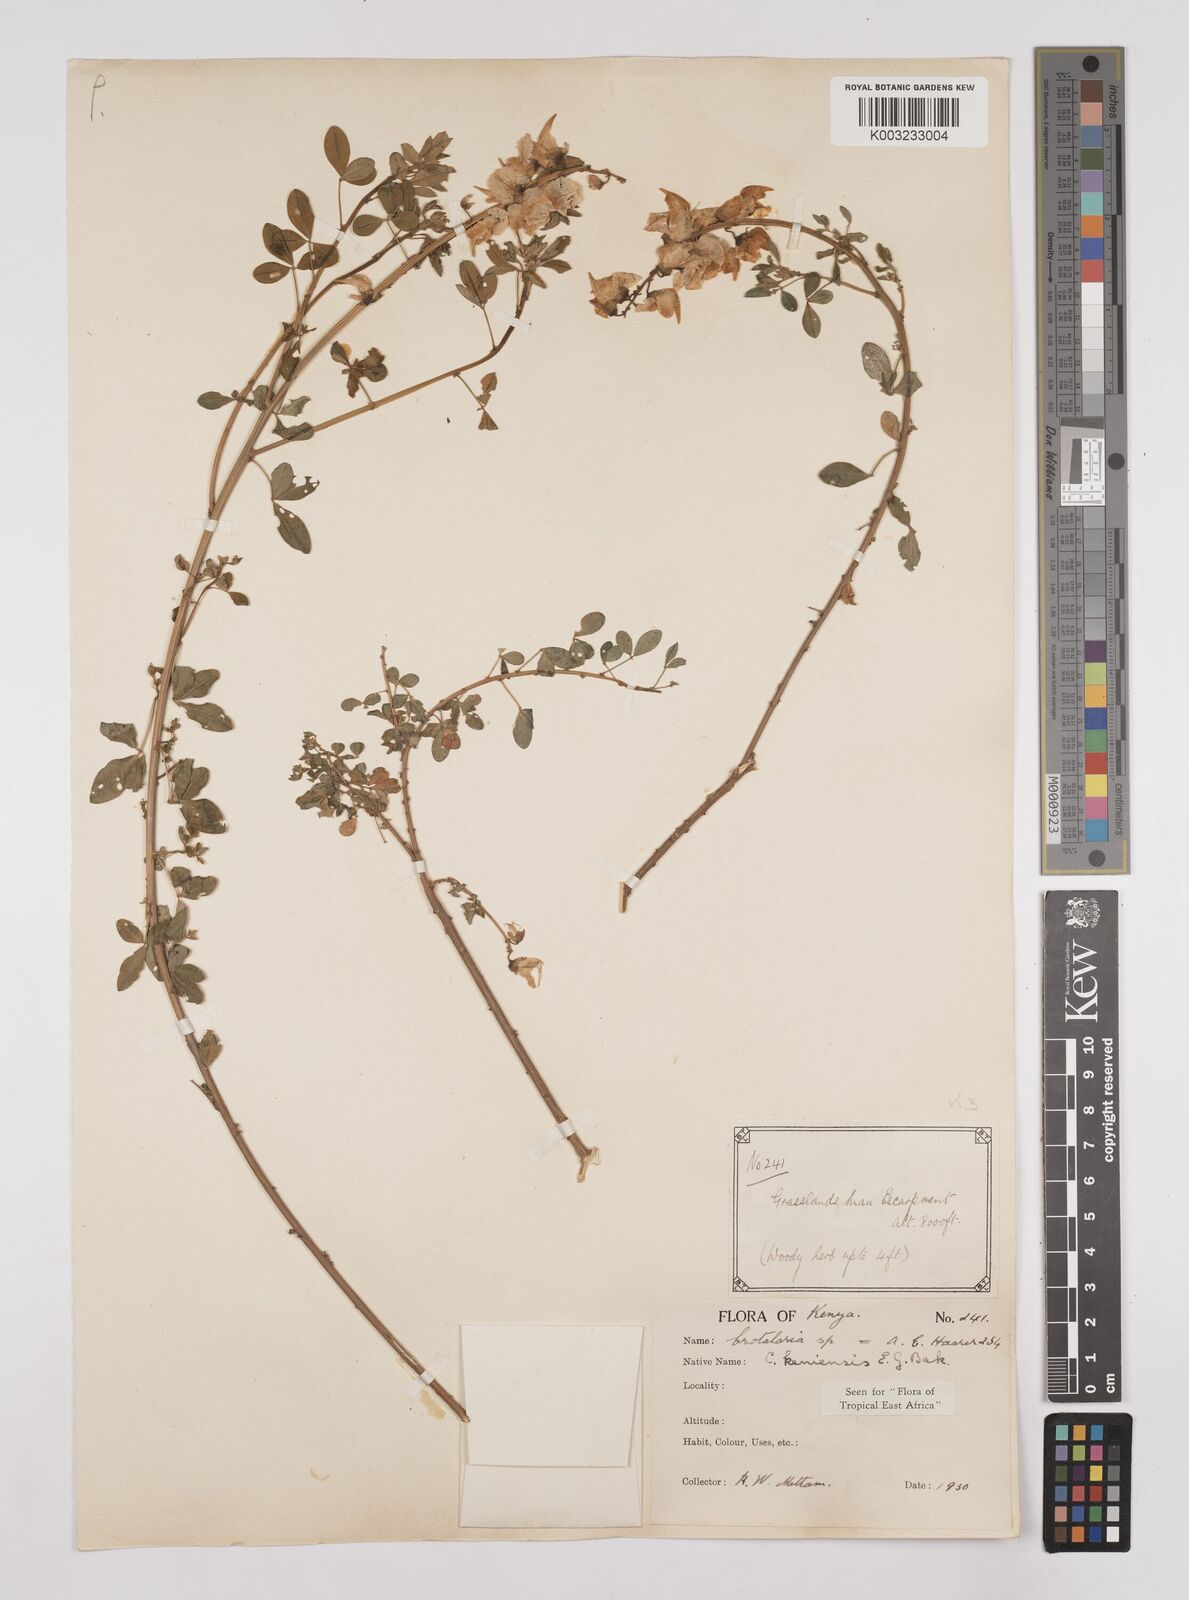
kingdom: Plantae
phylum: Tracheophyta
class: Magnoliopsida
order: Fabales
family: Fabaceae
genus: Crotalaria
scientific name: Crotalaria keniensis
